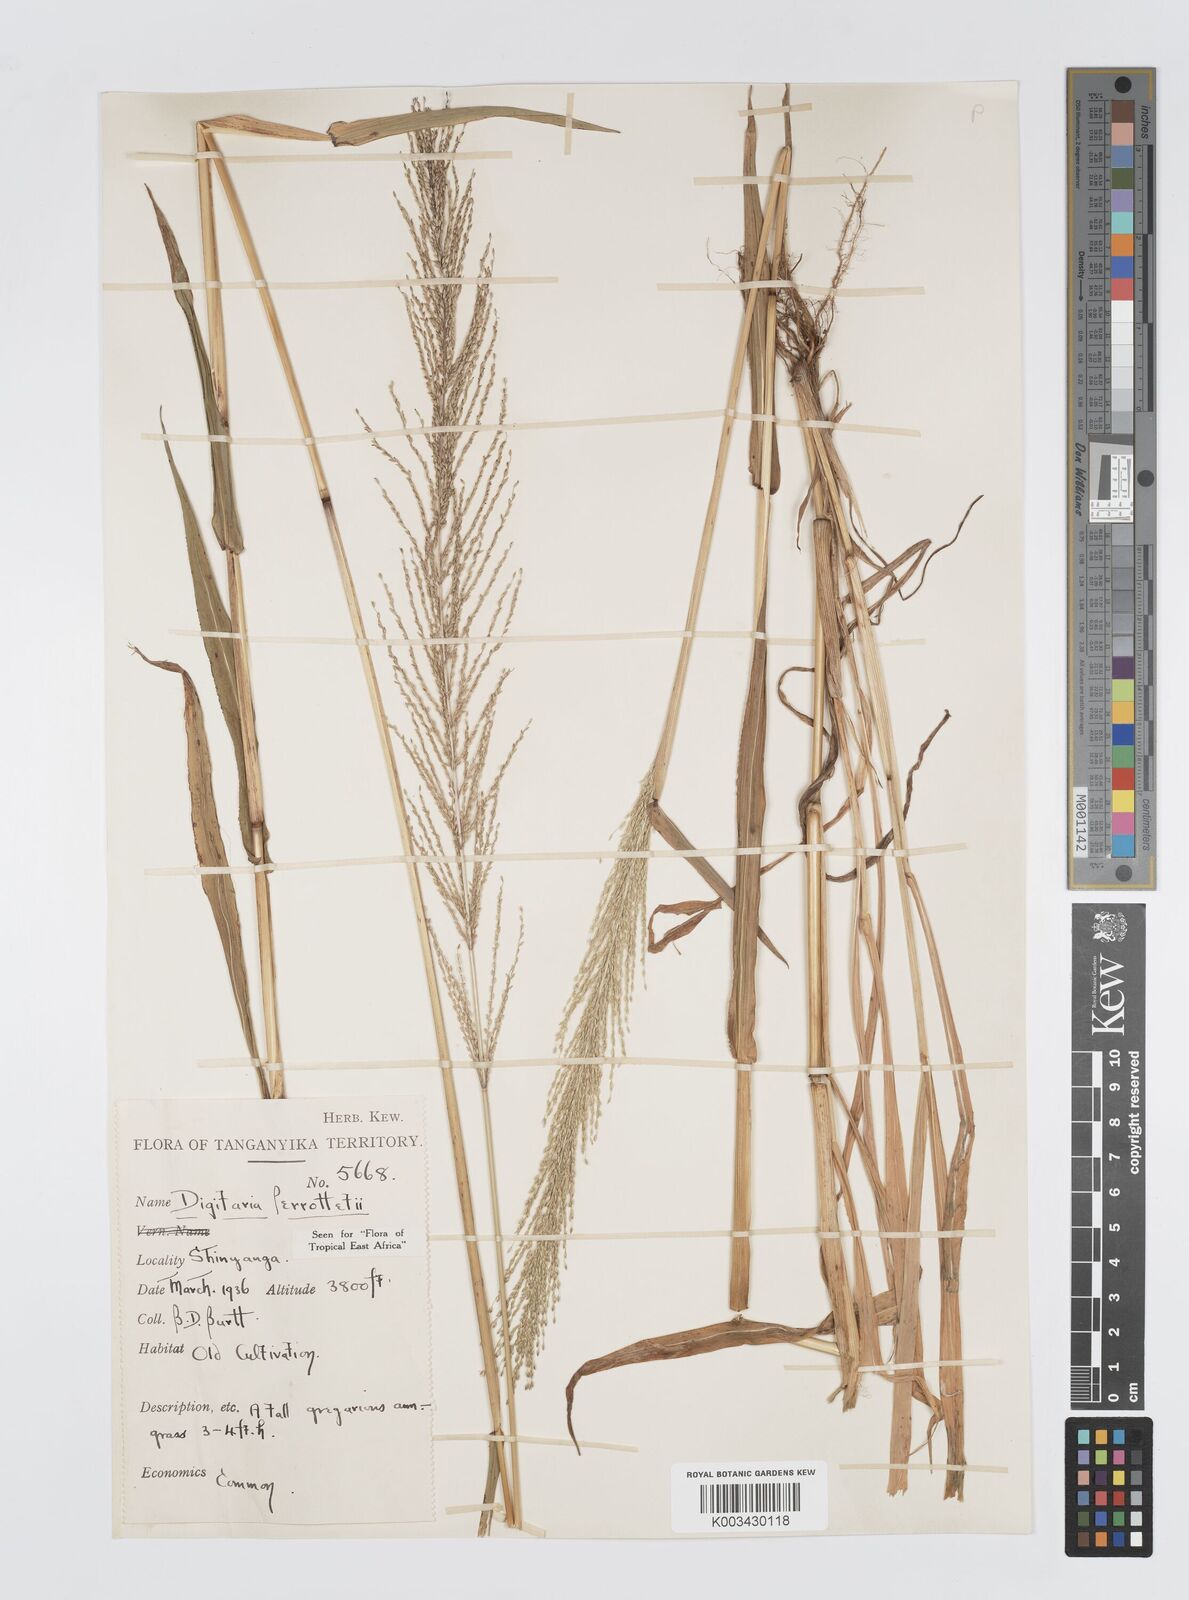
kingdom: Plantae
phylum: Tracheophyta
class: Liliopsida
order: Poales
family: Poaceae
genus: Digitaria
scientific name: Digitaria perrottetii
